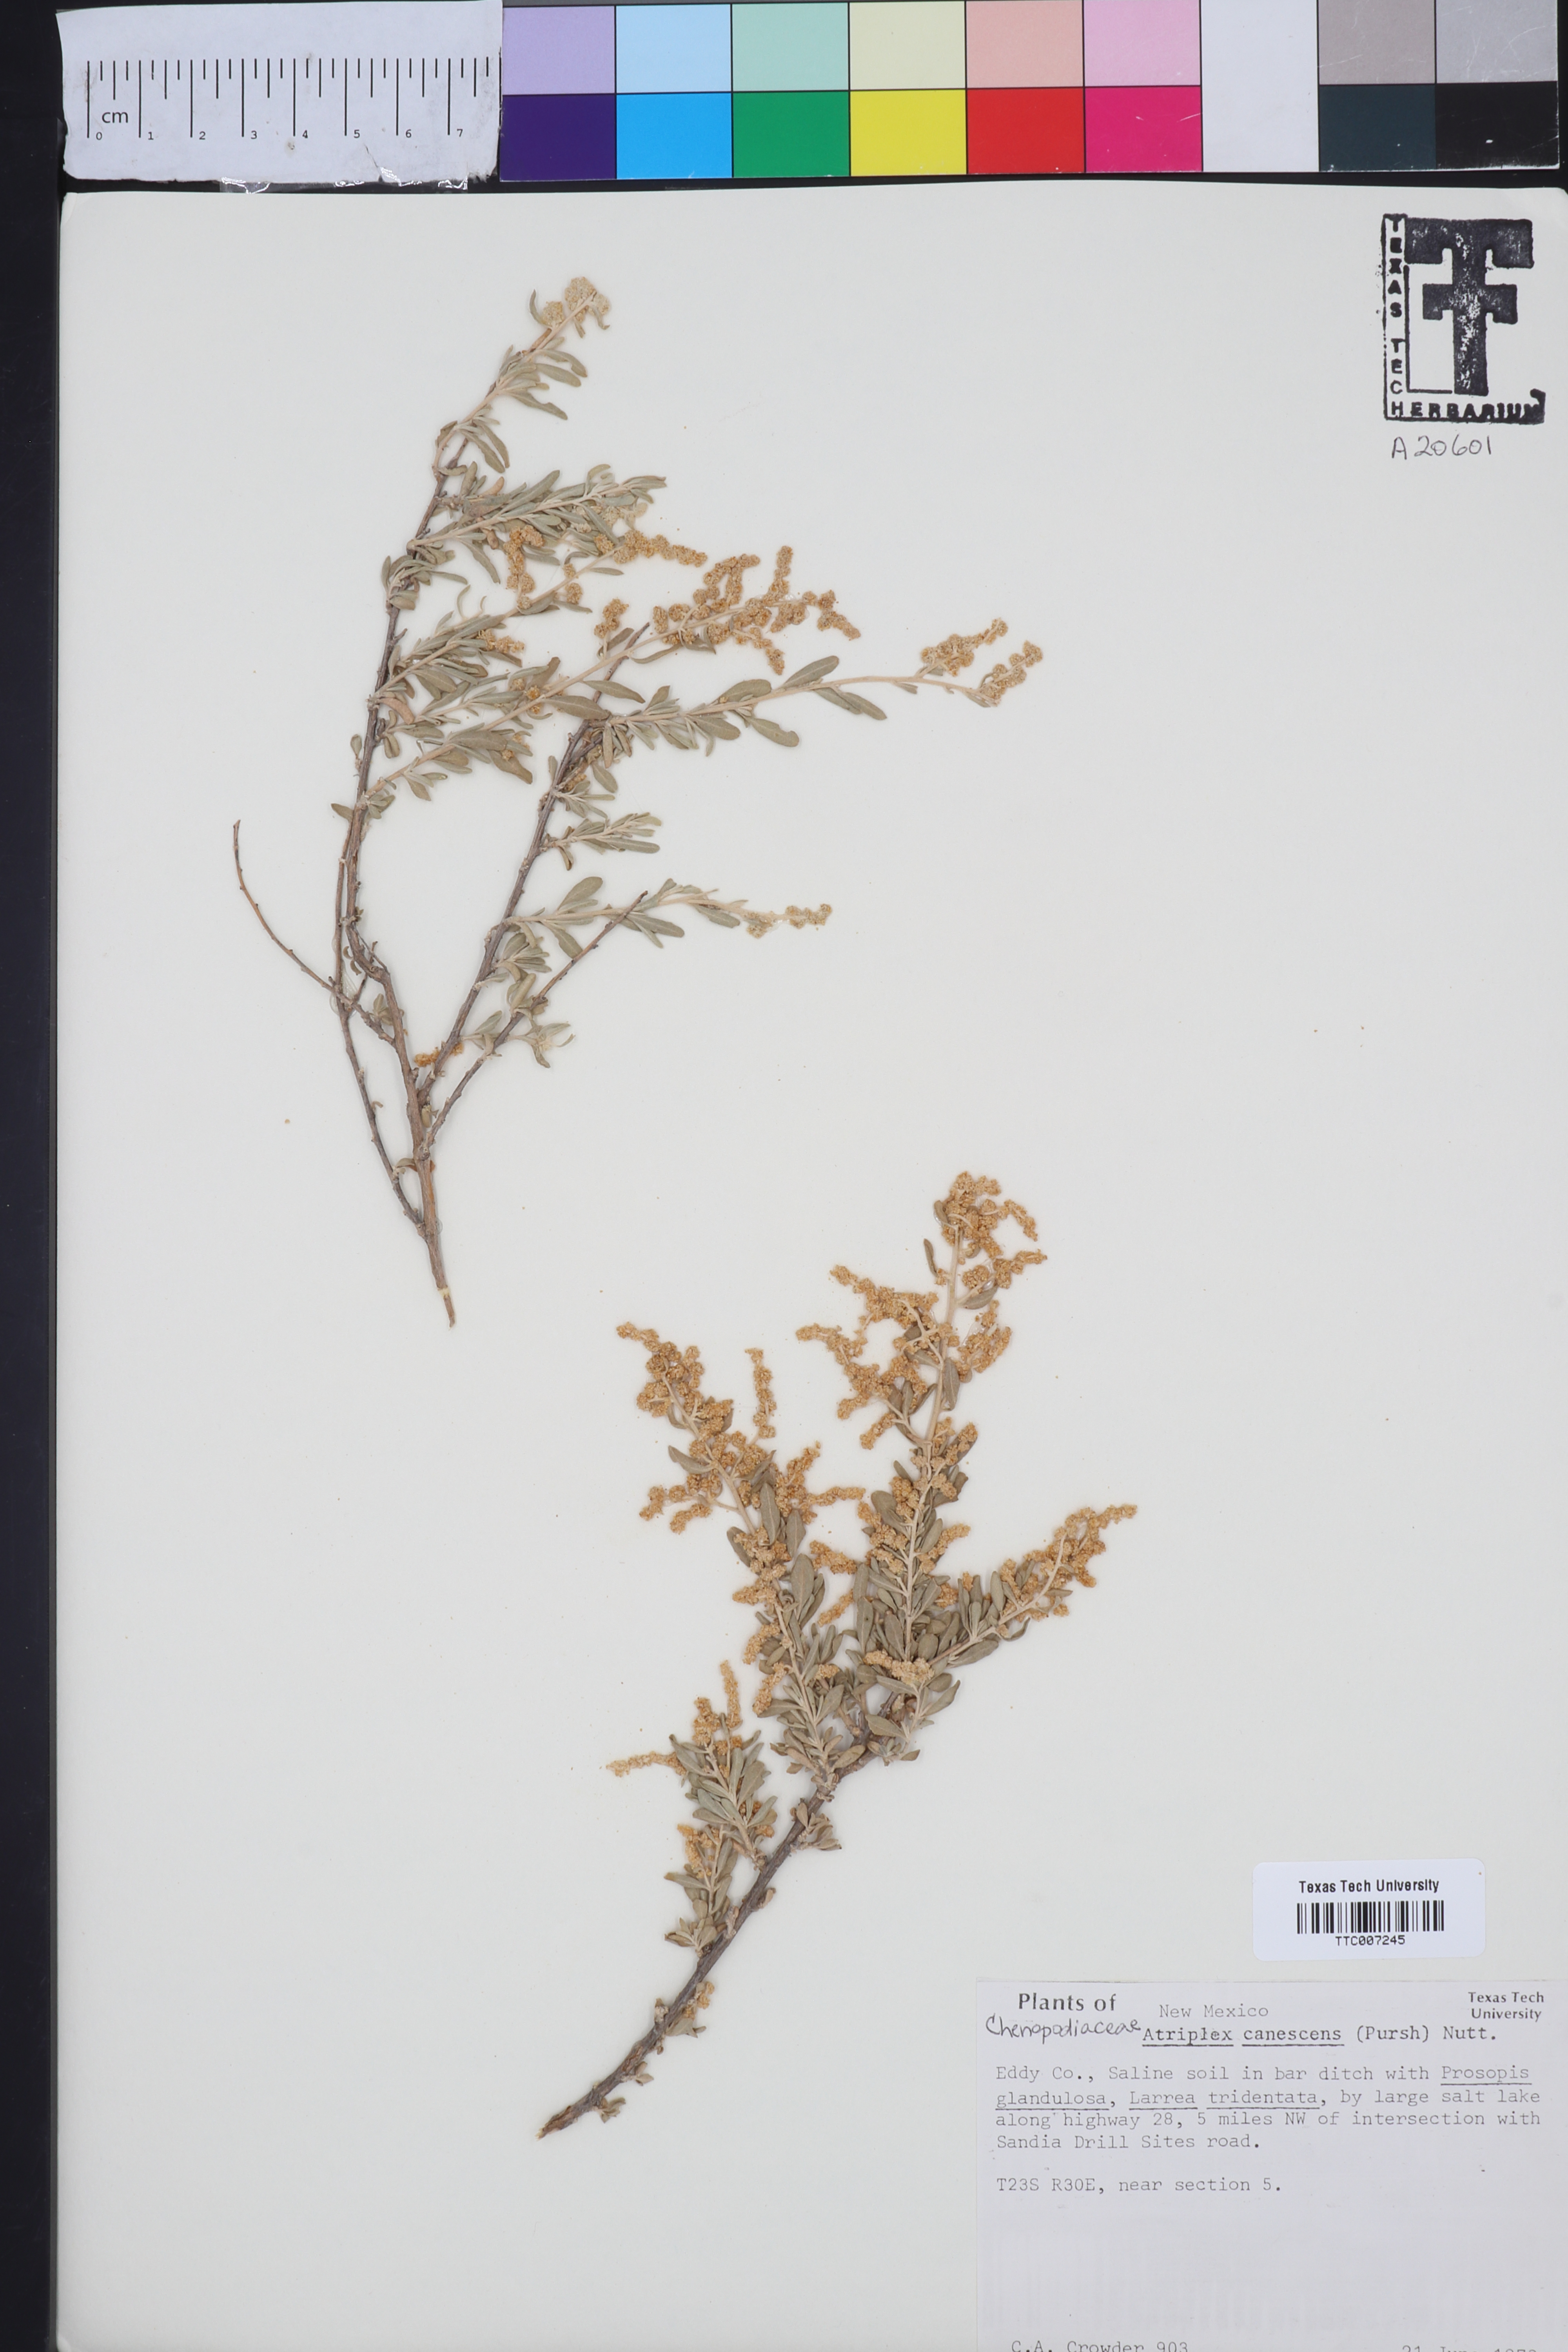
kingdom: Plantae
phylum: Tracheophyta
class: Magnoliopsida
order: Caryophyllales
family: Amaranthaceae
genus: Atriplex
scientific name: Atriplex canescens
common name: Four-wing saltbush
